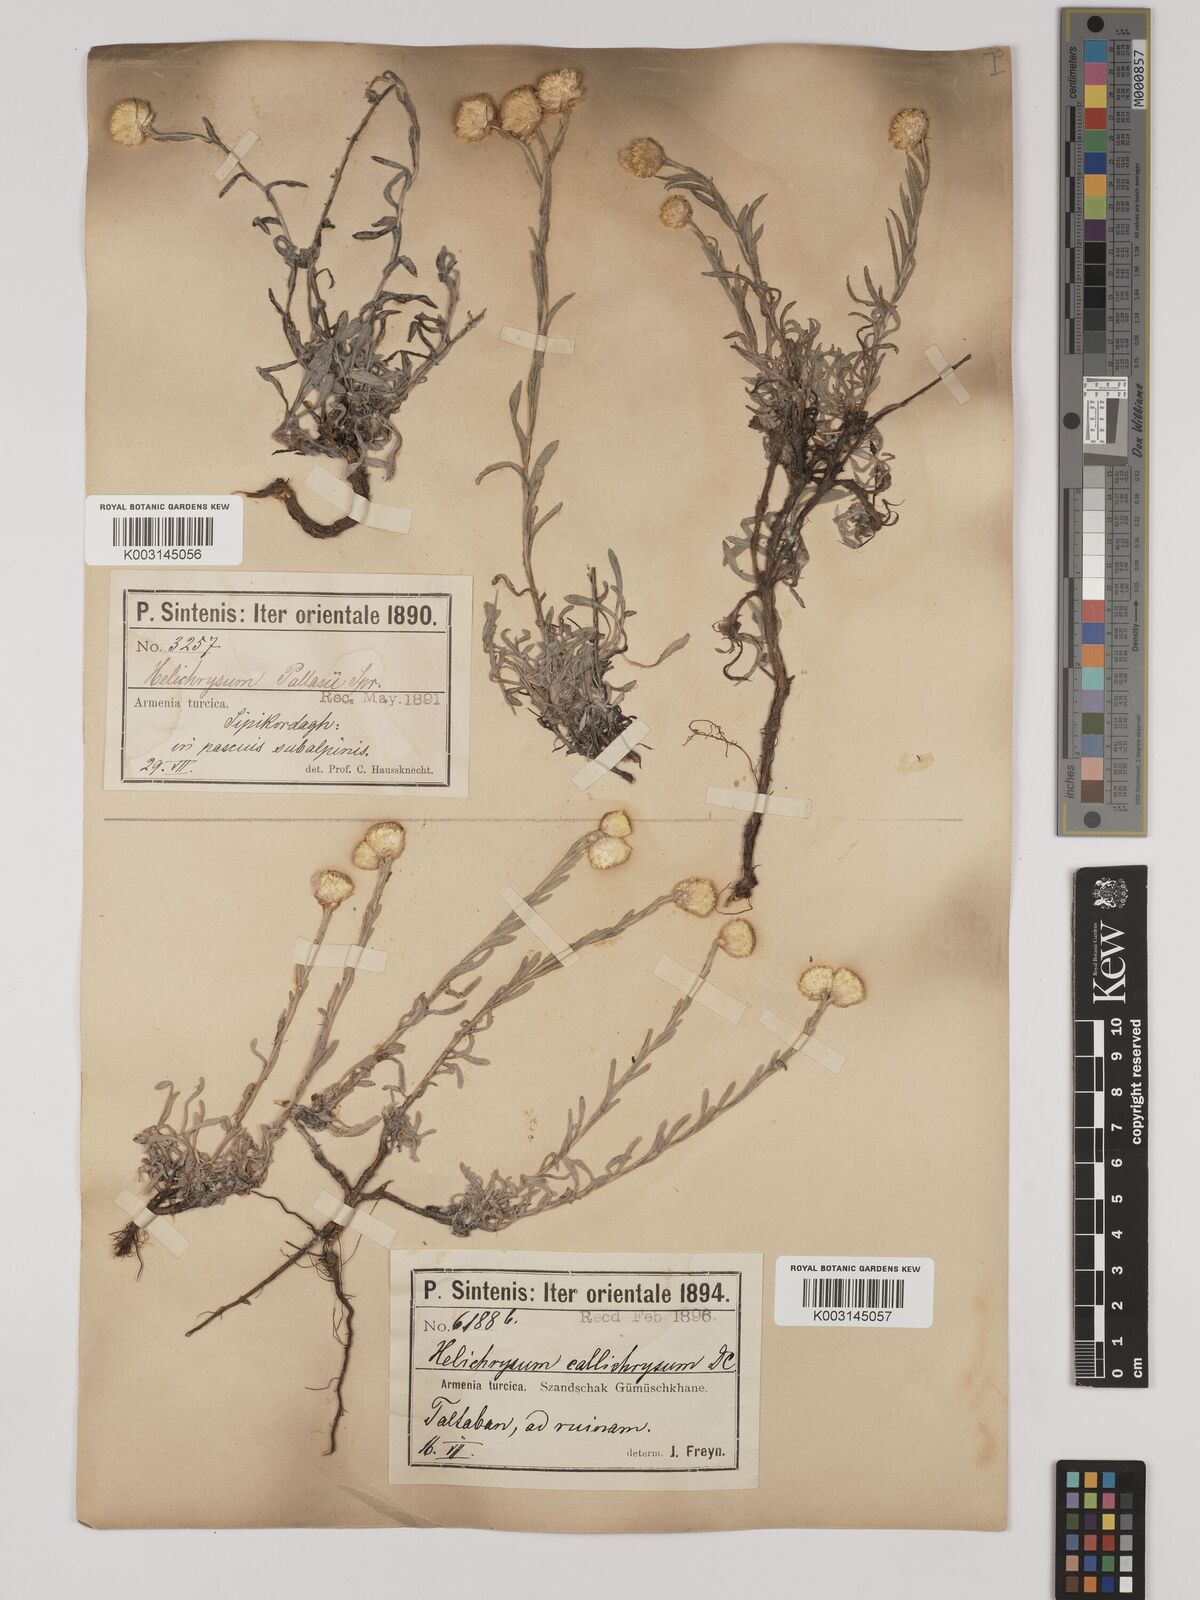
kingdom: Plantae
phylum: Tracheophyta
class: Magnoliopsida
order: Asterales
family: Asteraceae
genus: Helichrysum
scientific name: Helichrysum pallasii
